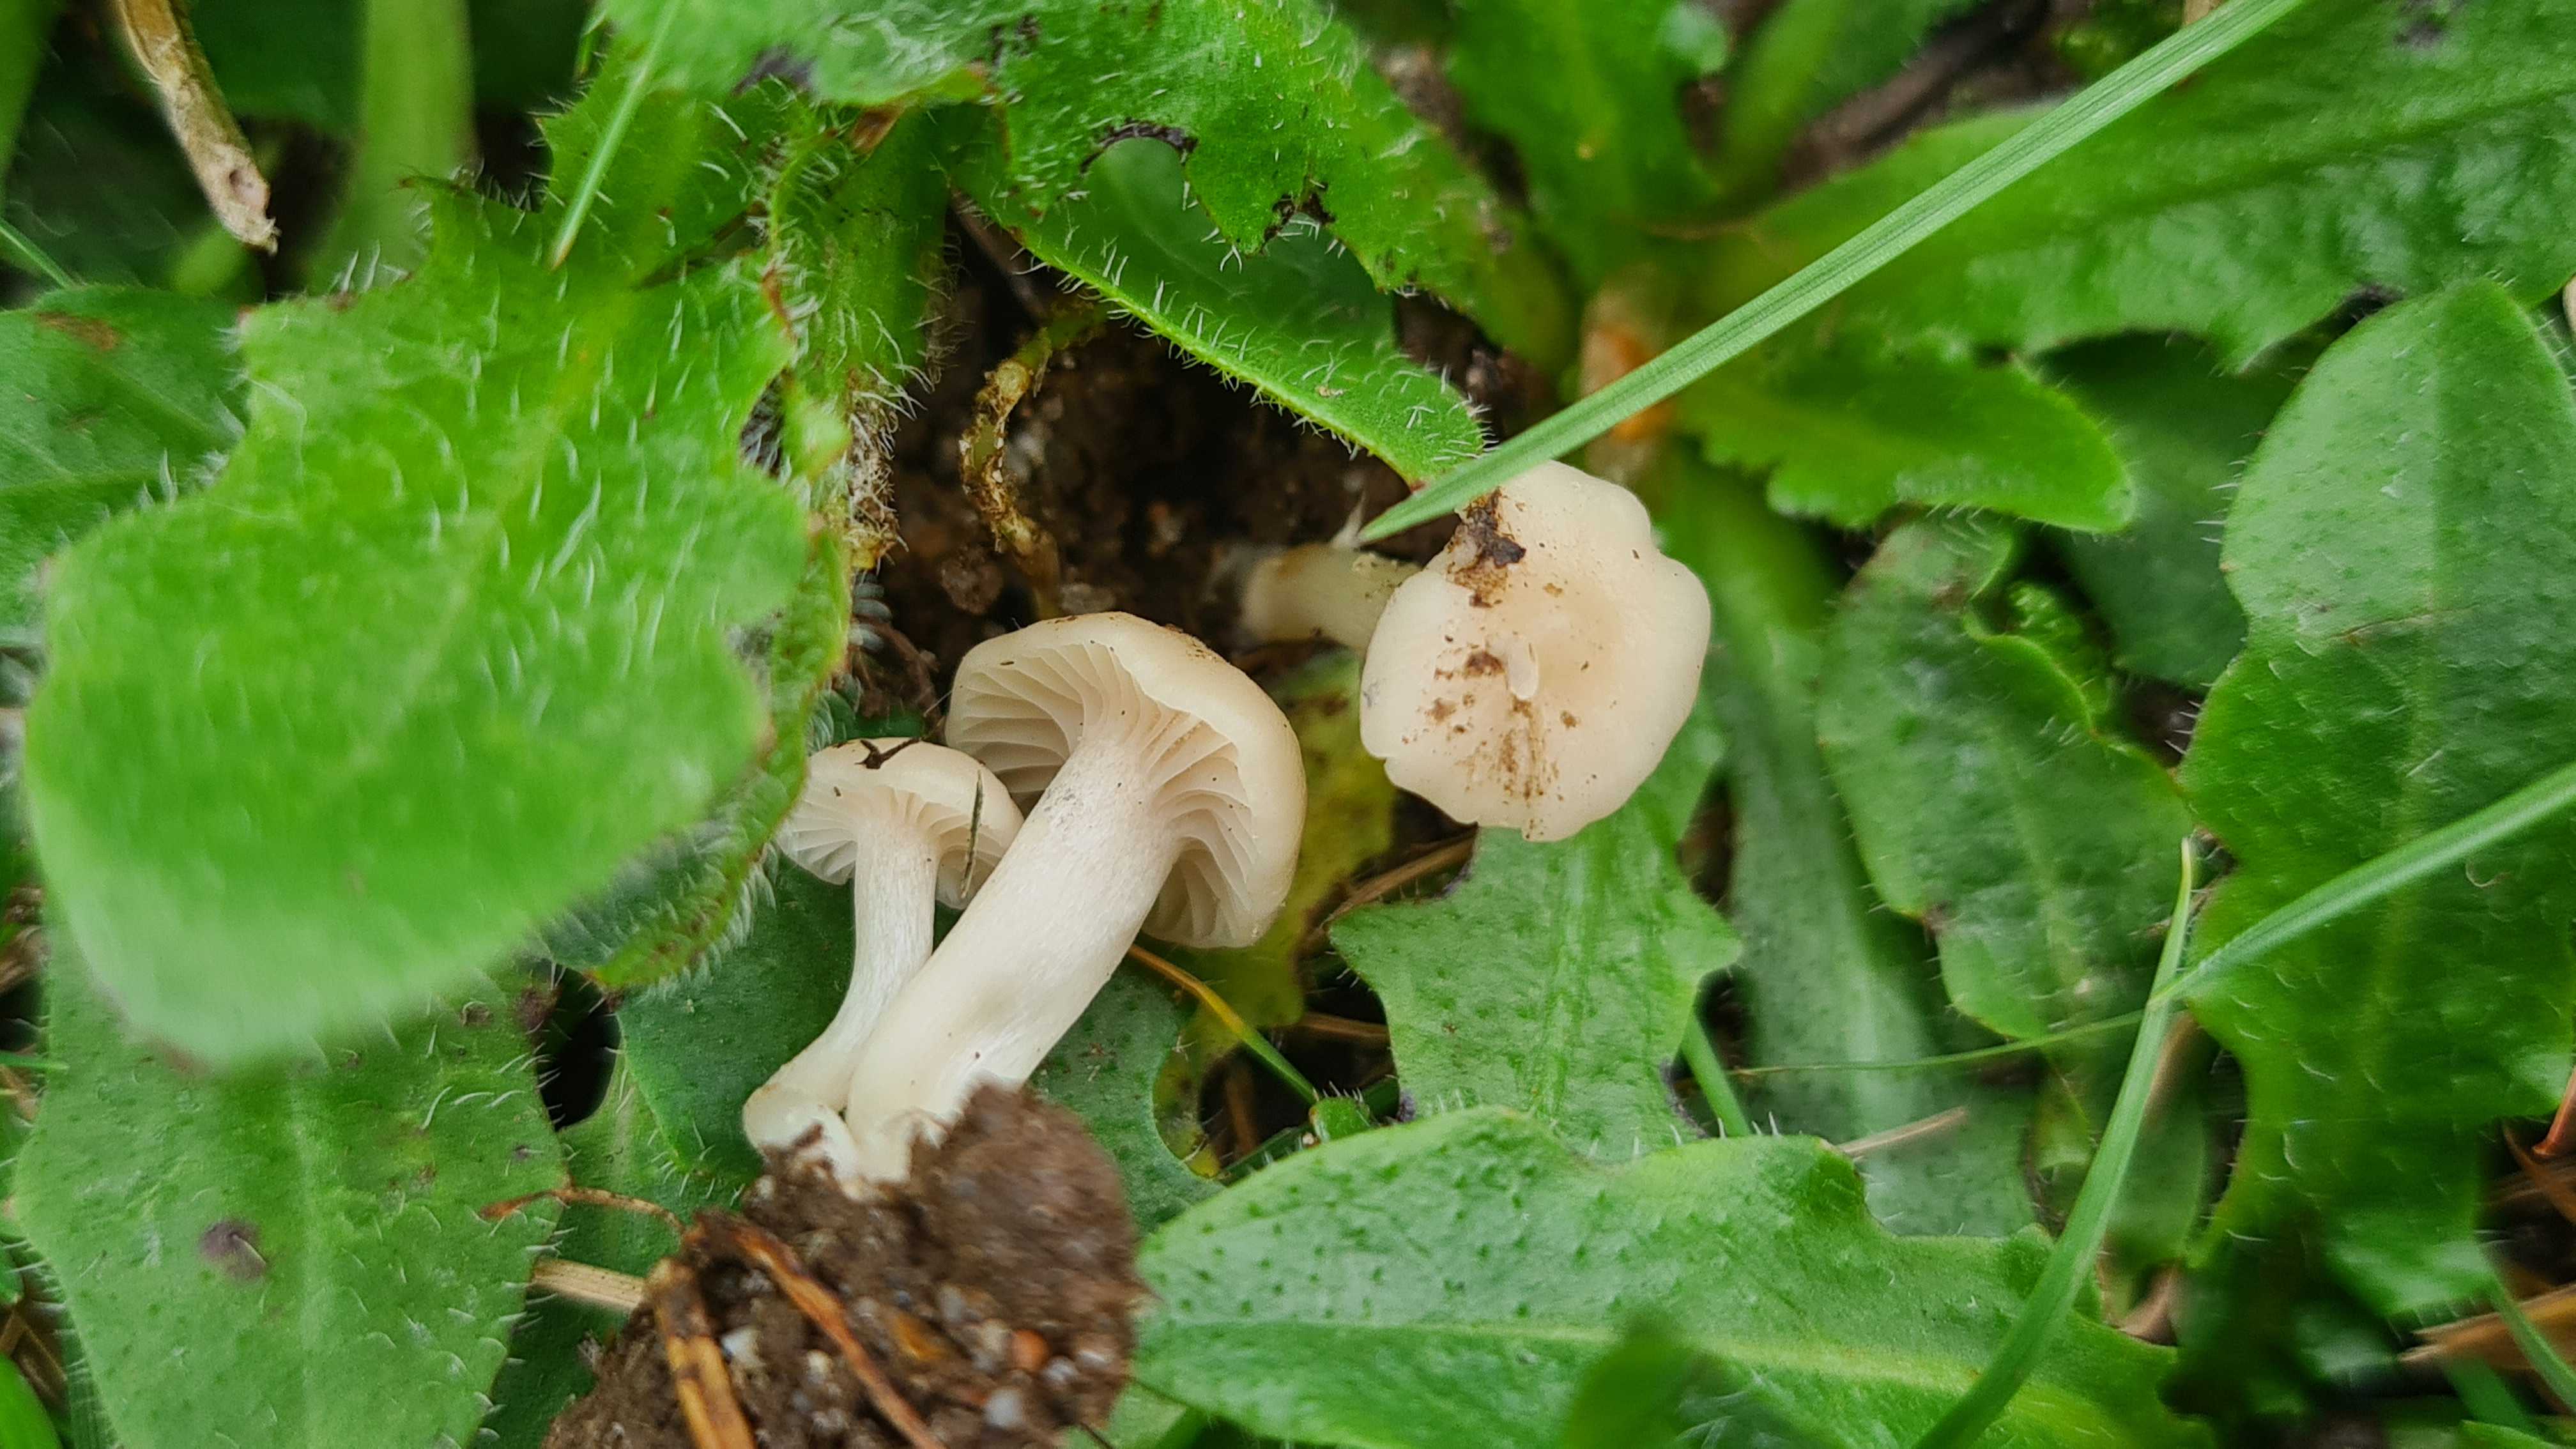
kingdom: Fungi
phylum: Basidiomycota
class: Agaricomycetes
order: Agaricales
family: Hygrophoraceae
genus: Cuphophyllus
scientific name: Cuphophyllus virgineus
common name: snehvid vokshat
